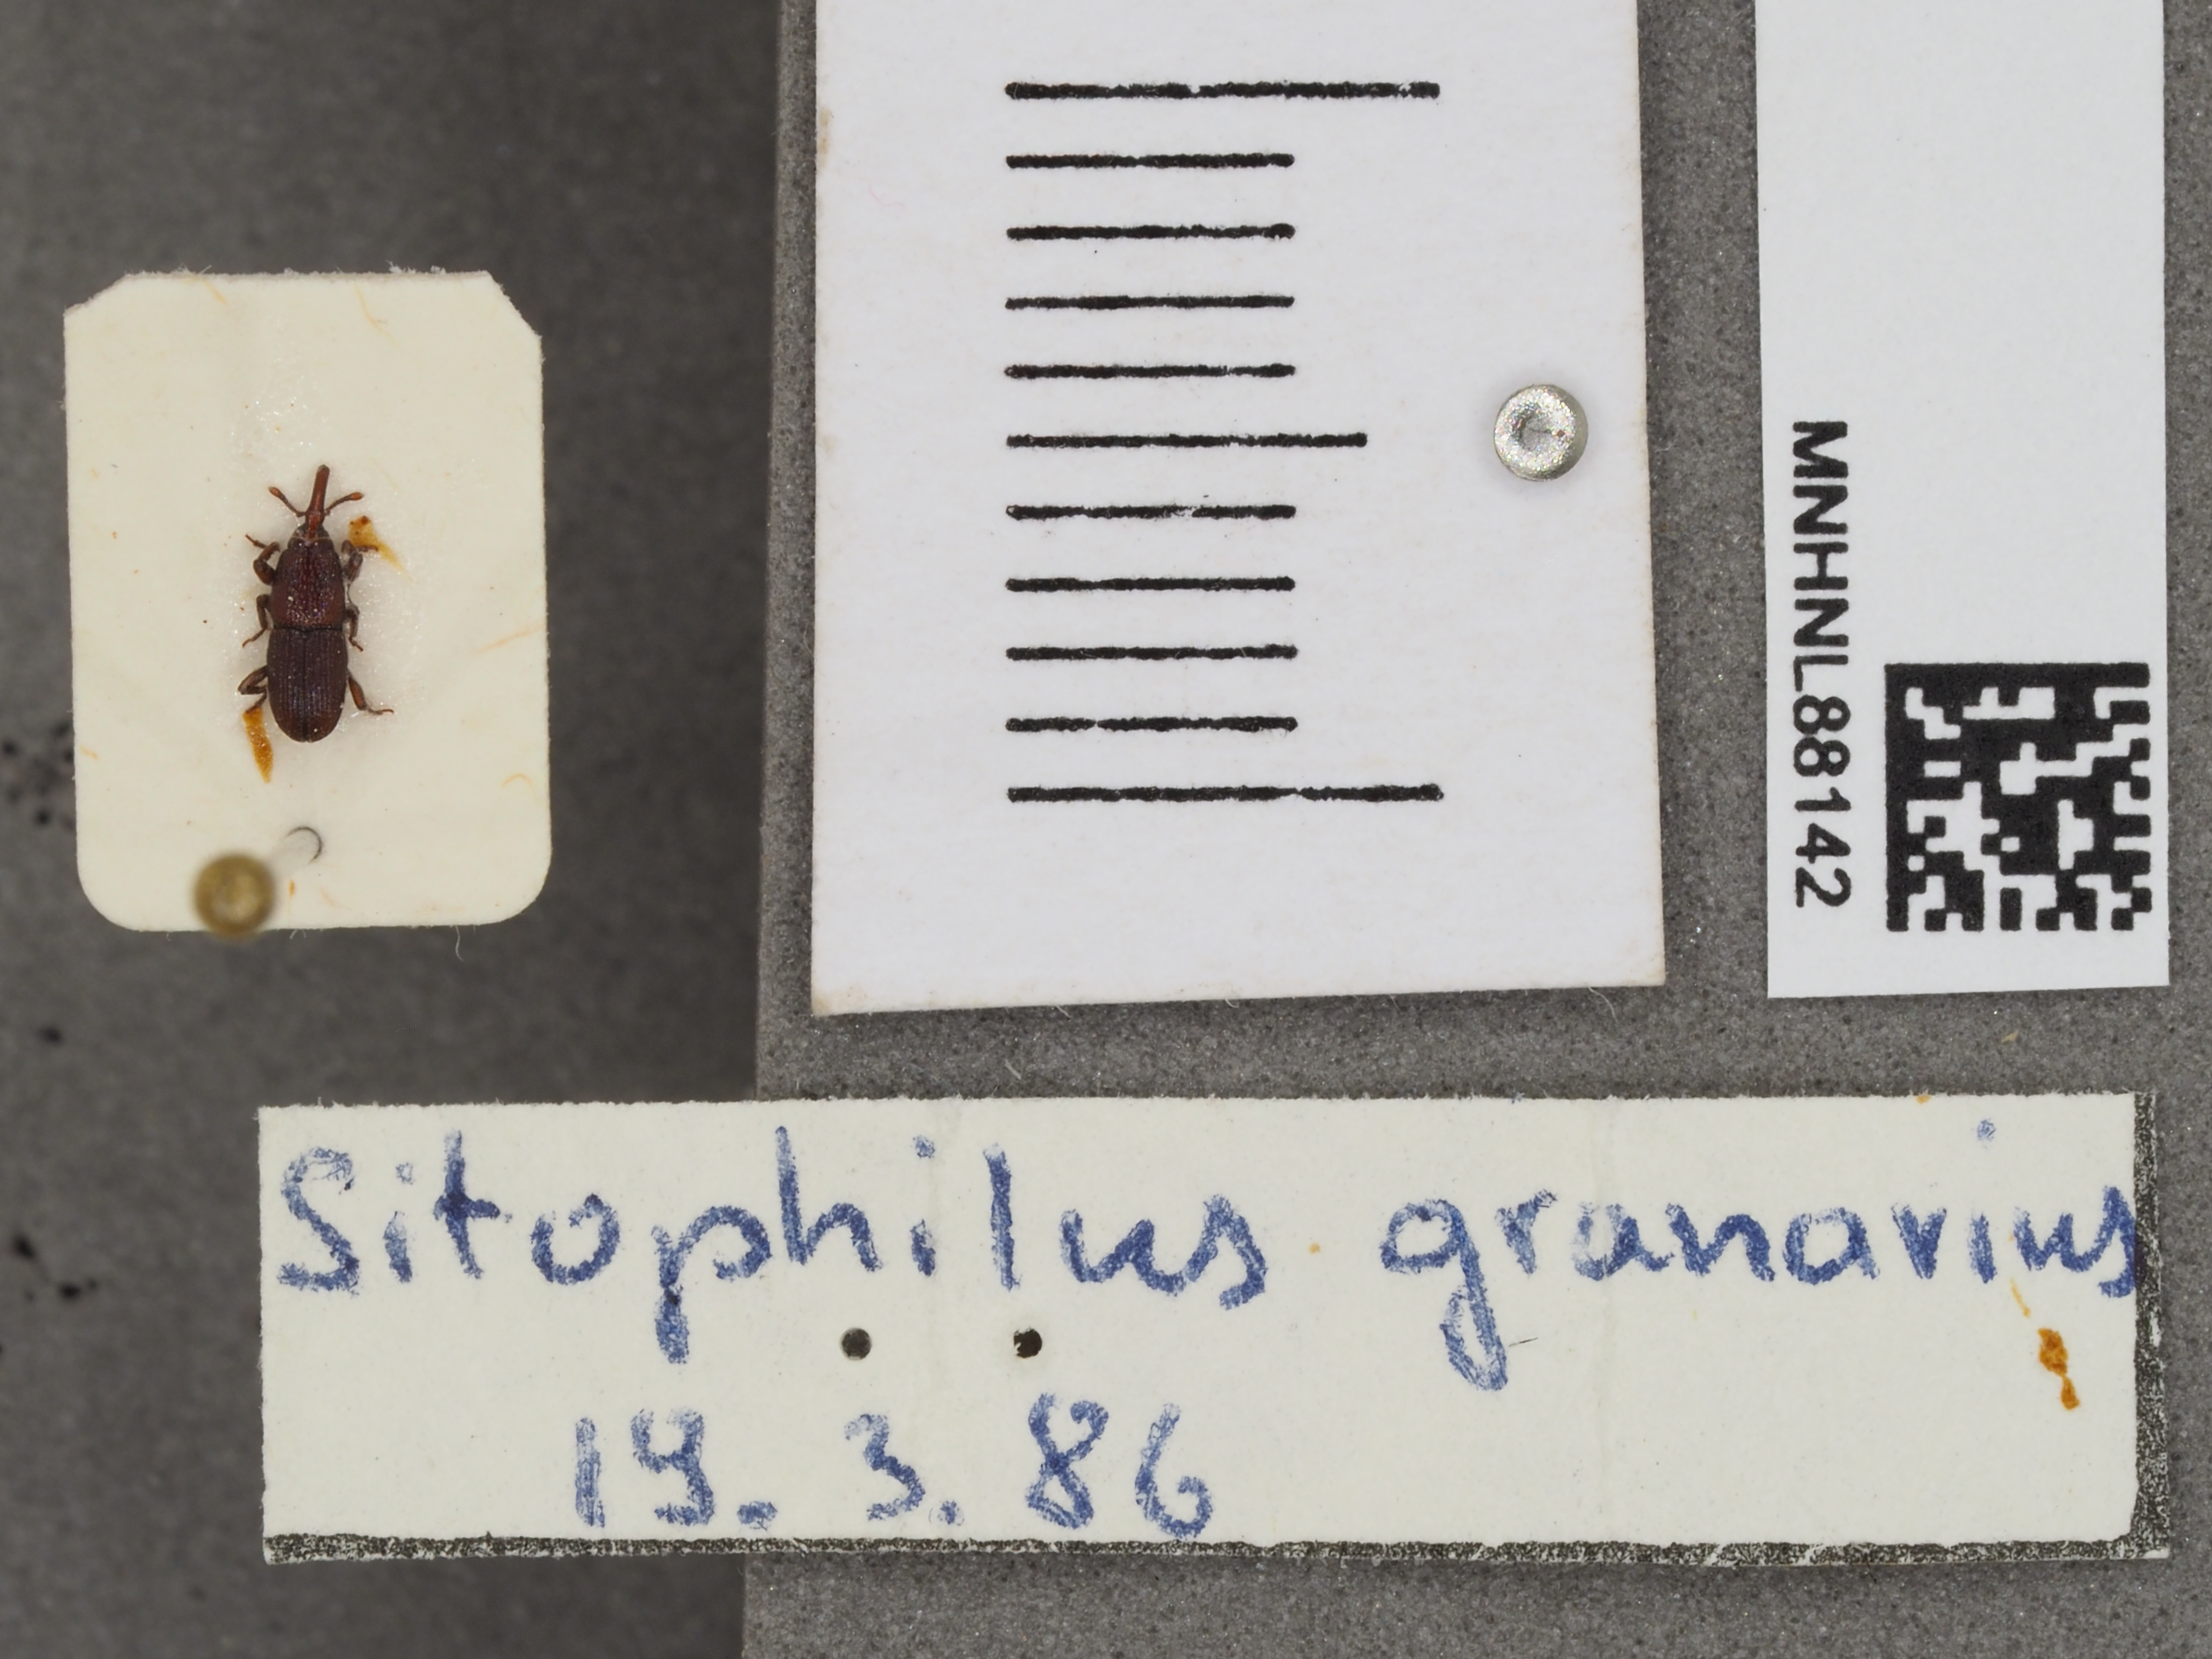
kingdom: Animalia
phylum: Arthropoda
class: Insecta
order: Coleoptera
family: Dryophthoridae
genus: Sitophilus
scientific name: Sitophilus granarius
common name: Granary weevil
